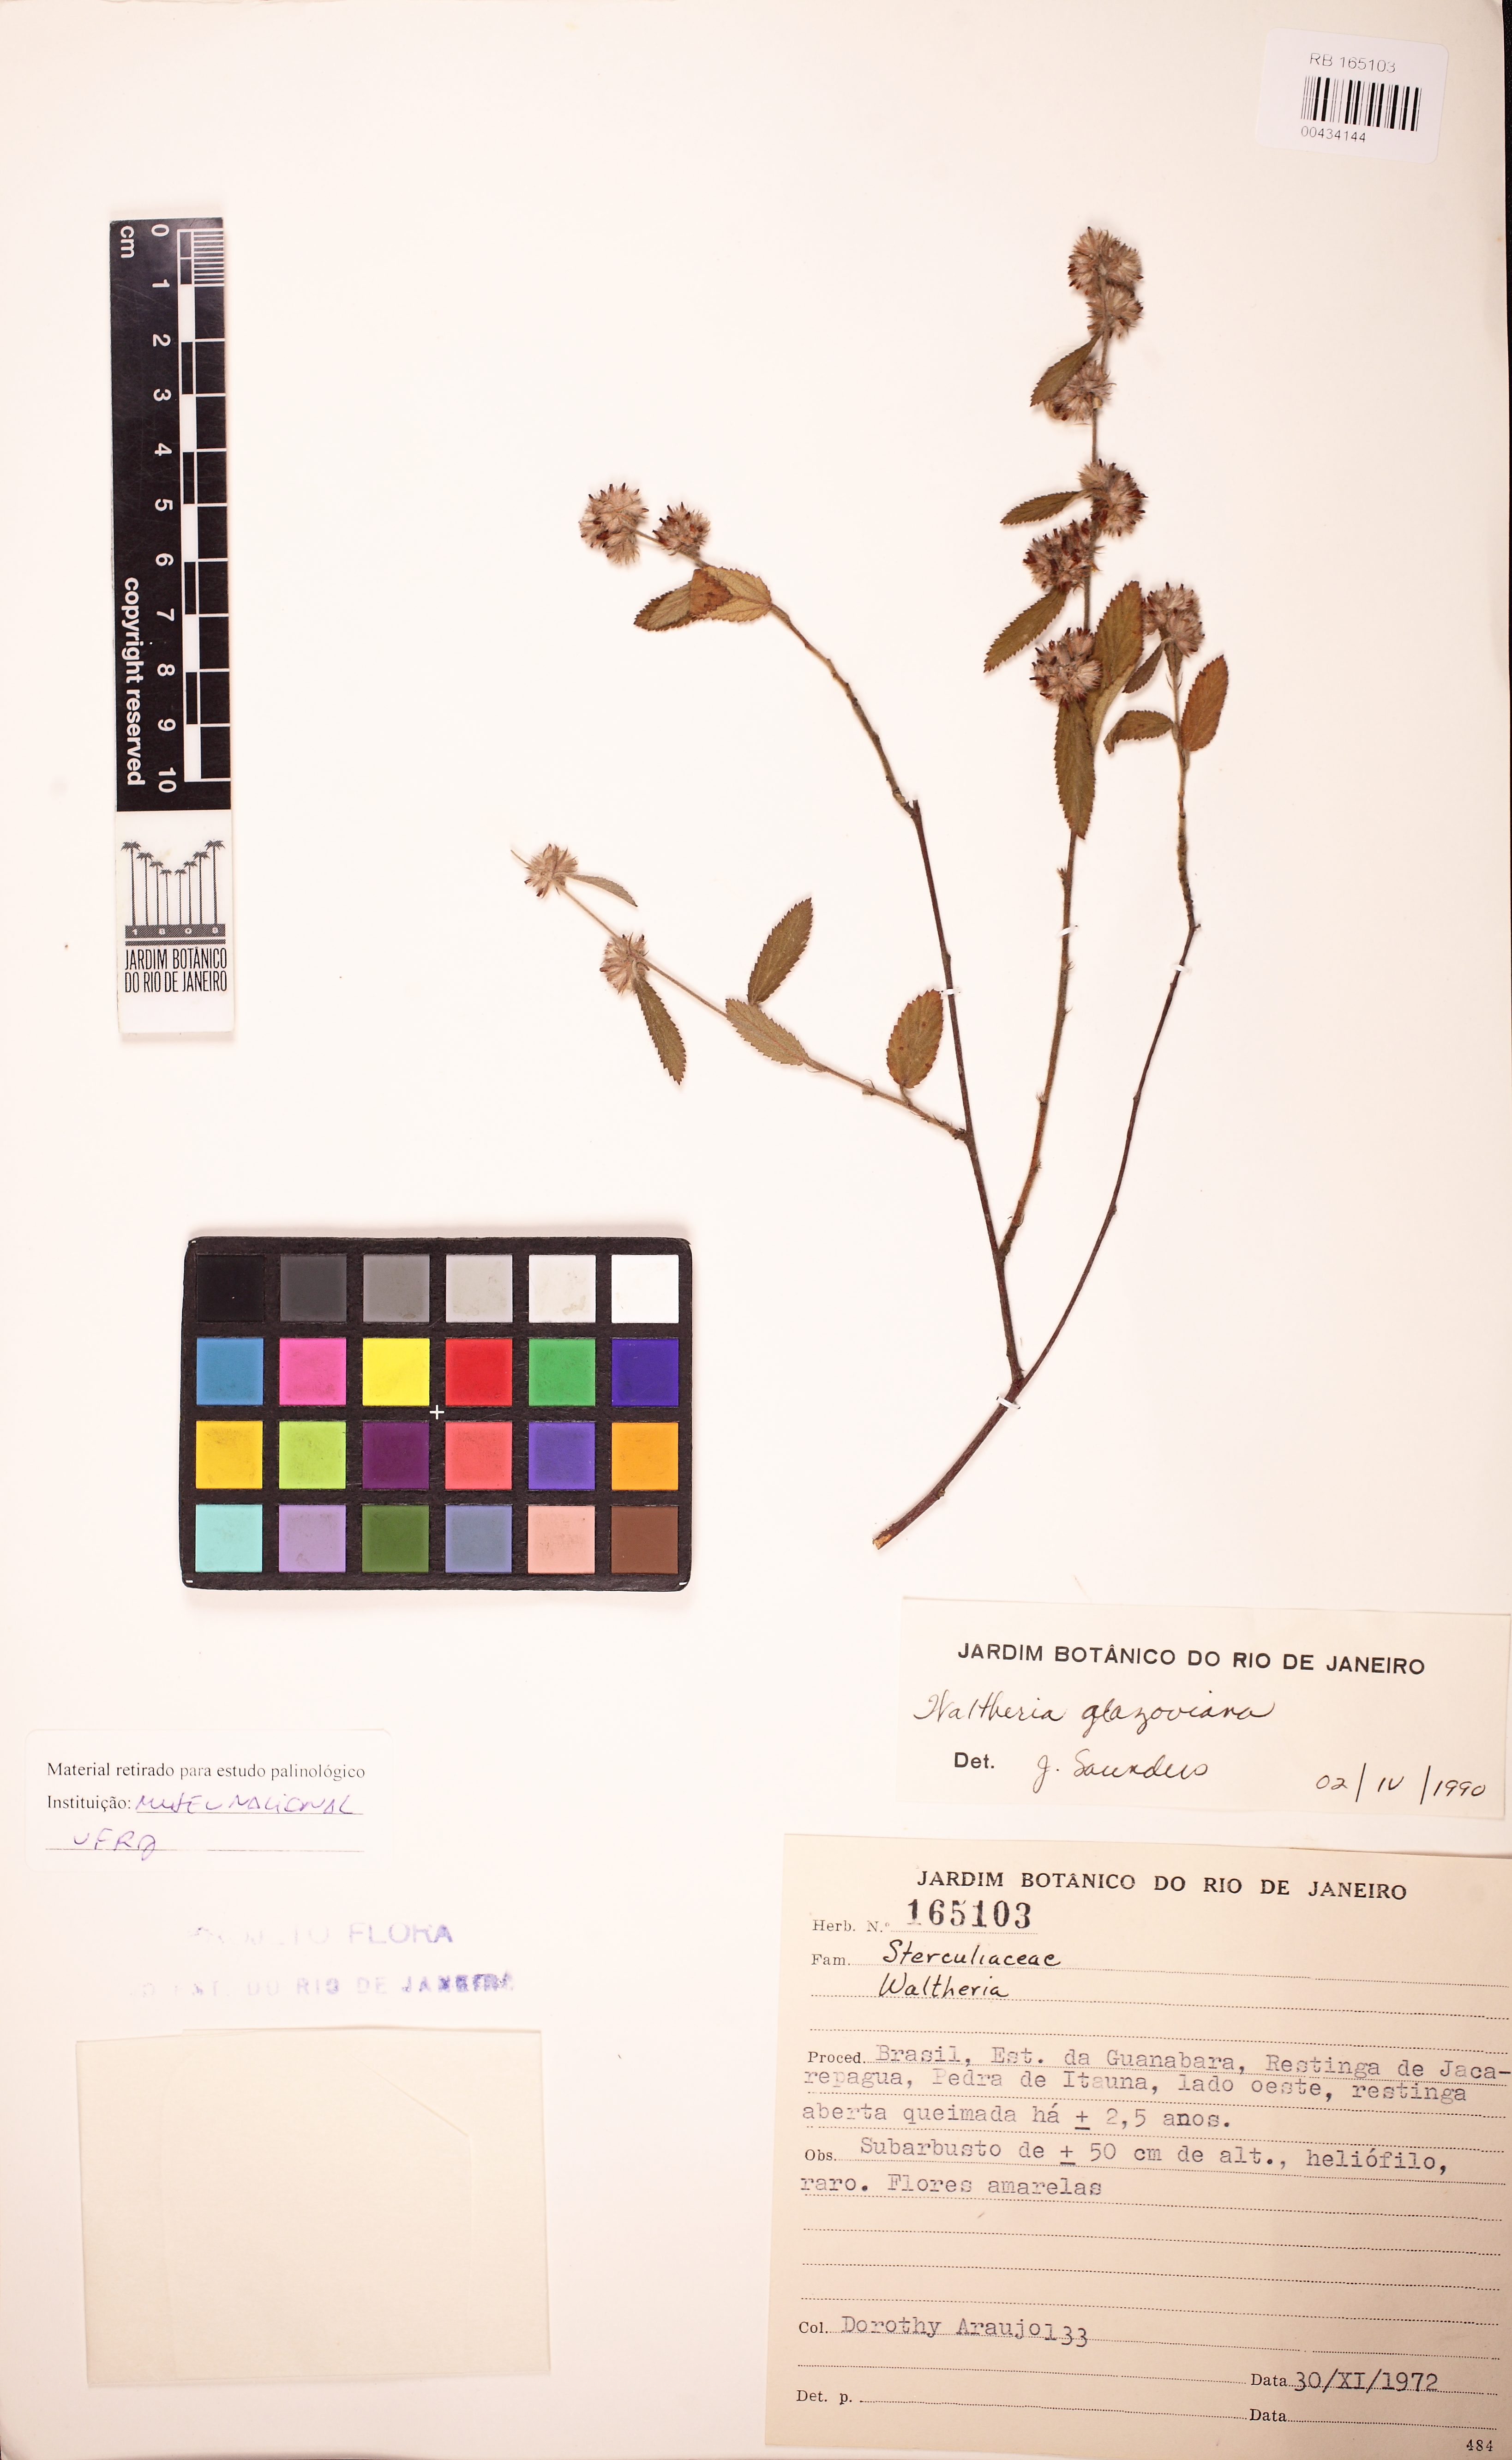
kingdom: Plantae
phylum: Tracheophyta
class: Magnoliopsida
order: Malvales
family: Malvaceae
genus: Waltheria
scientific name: Waltheria glazioviana
